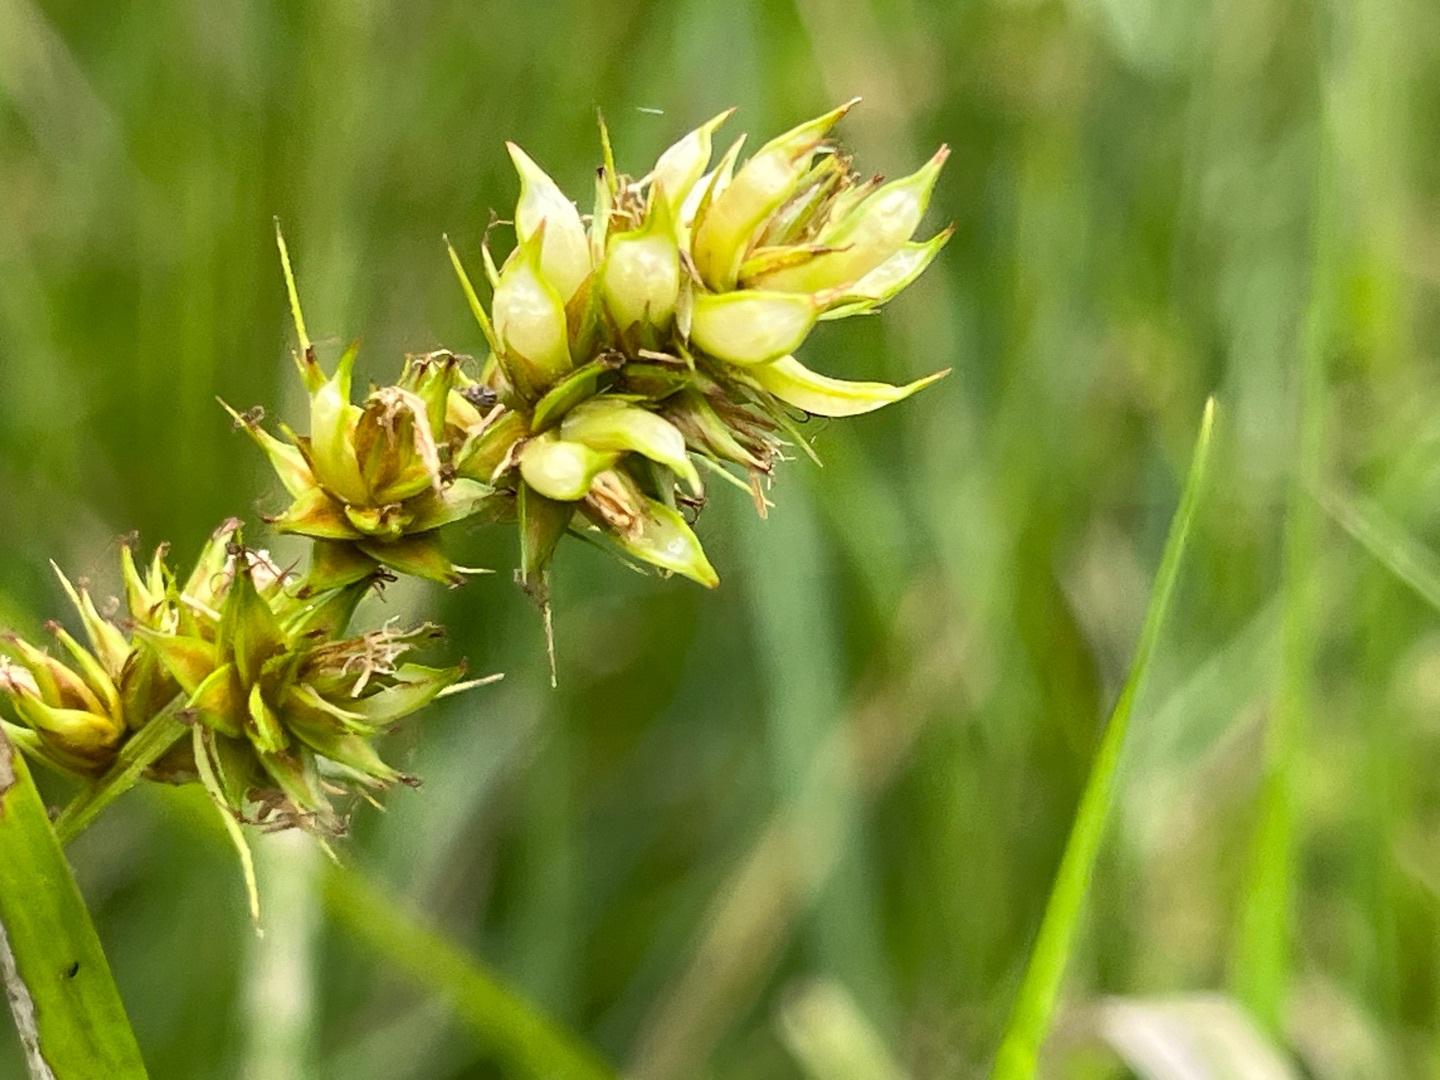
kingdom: Animalia
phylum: Arthropoda
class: Insecta
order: Diptera
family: Cecidomyiidae
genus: Dasineura
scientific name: Dasineura inflata
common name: Syltstargalmyg
